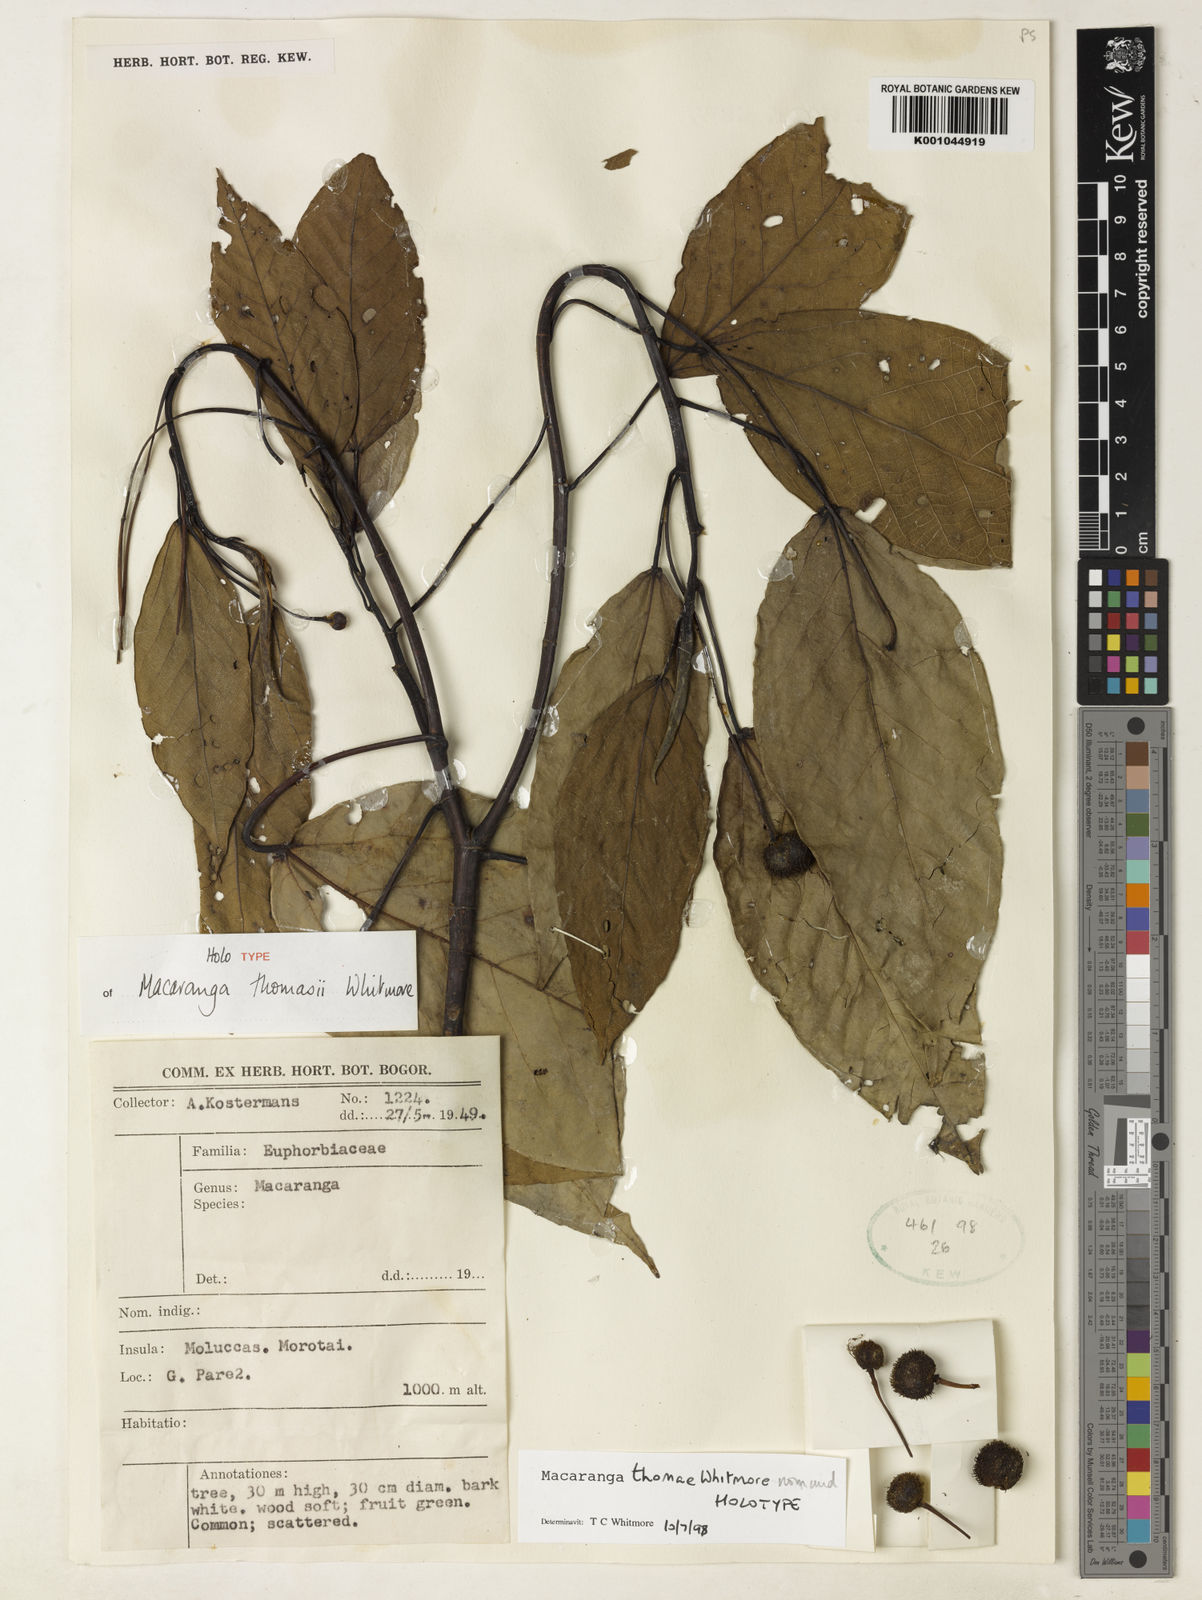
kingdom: Plantae
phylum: Tracheophyta
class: Magnoliopsida
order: Malpighiales
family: Euphorbiaceae
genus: Macaranga
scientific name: Macaranga thomasii
